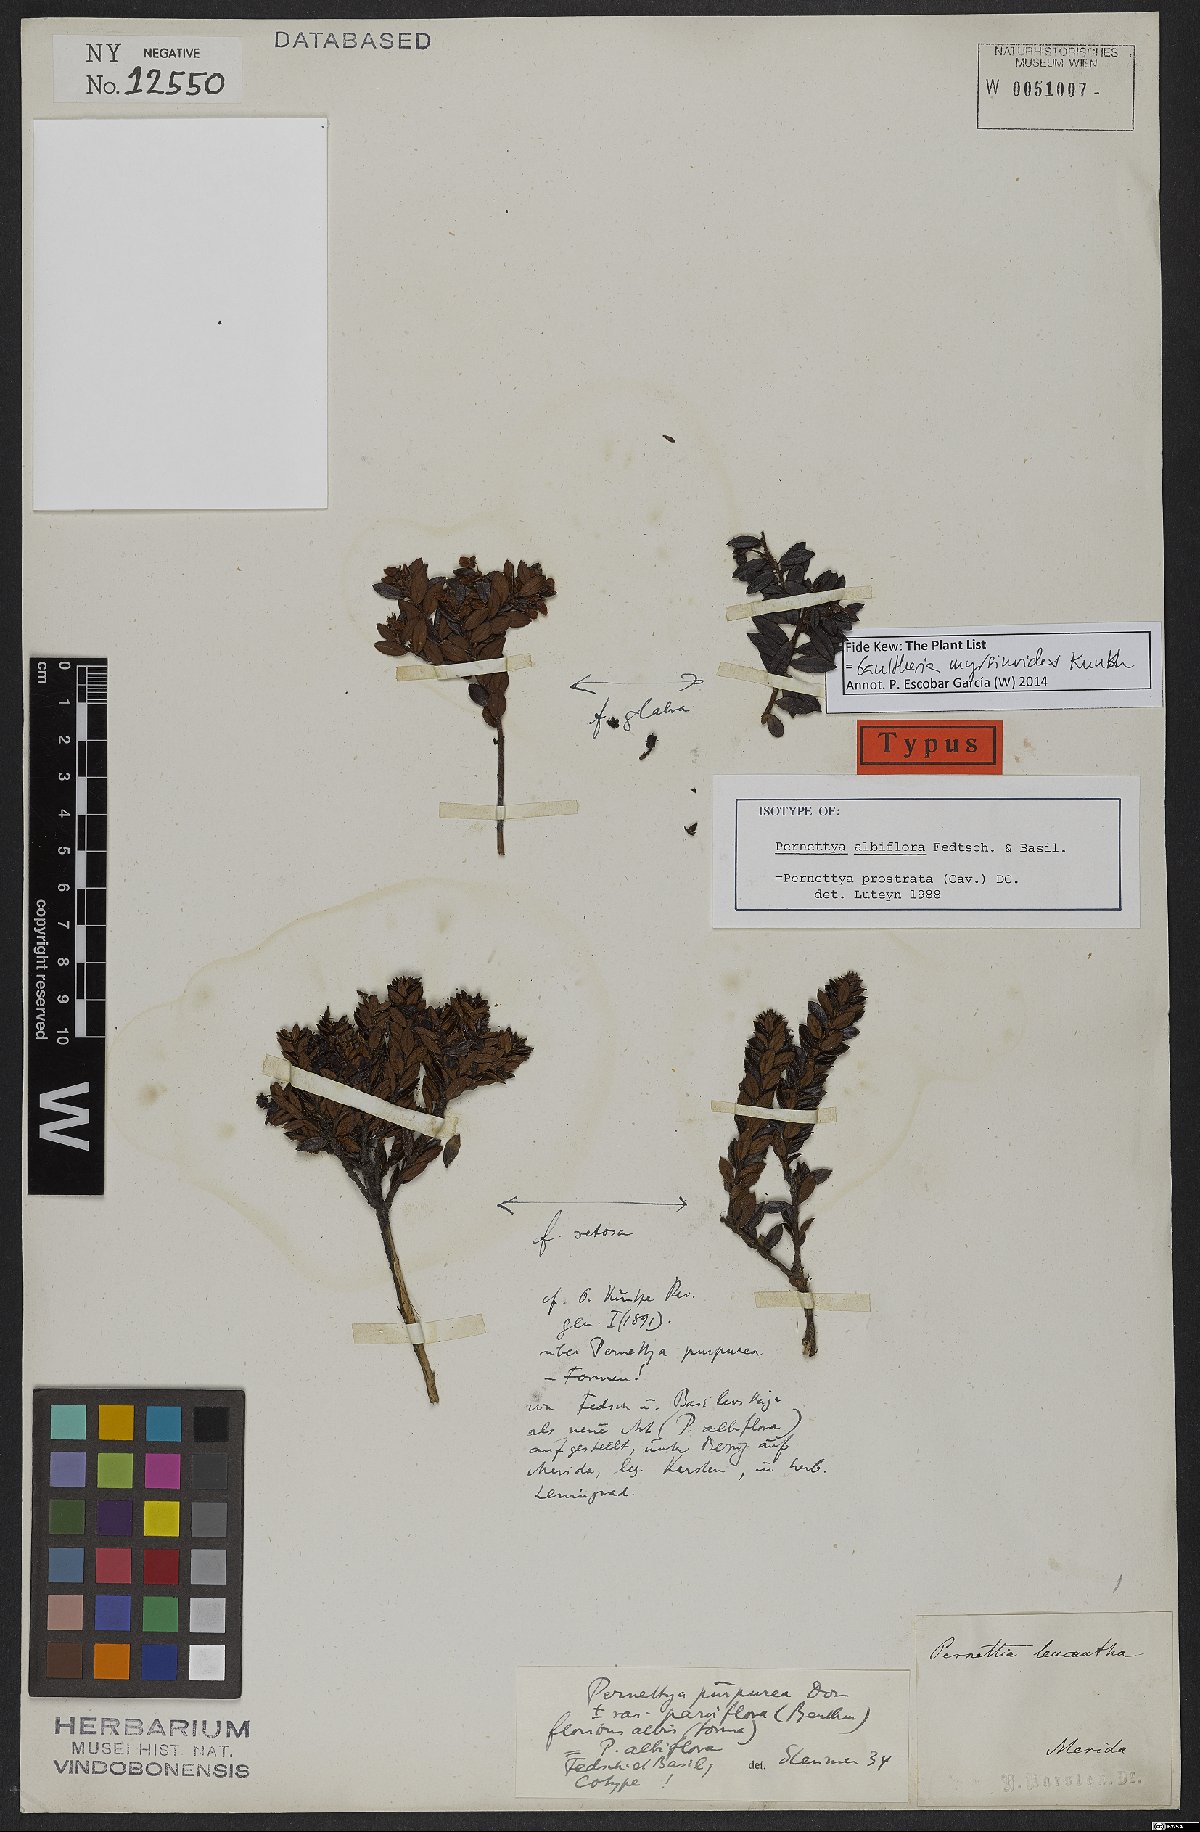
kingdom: Plantae
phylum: Tracheophyta
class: Magnoliopsida
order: Ericales
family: Ericaceae
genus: Gaultheria
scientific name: Gaultheria myrsinoides
